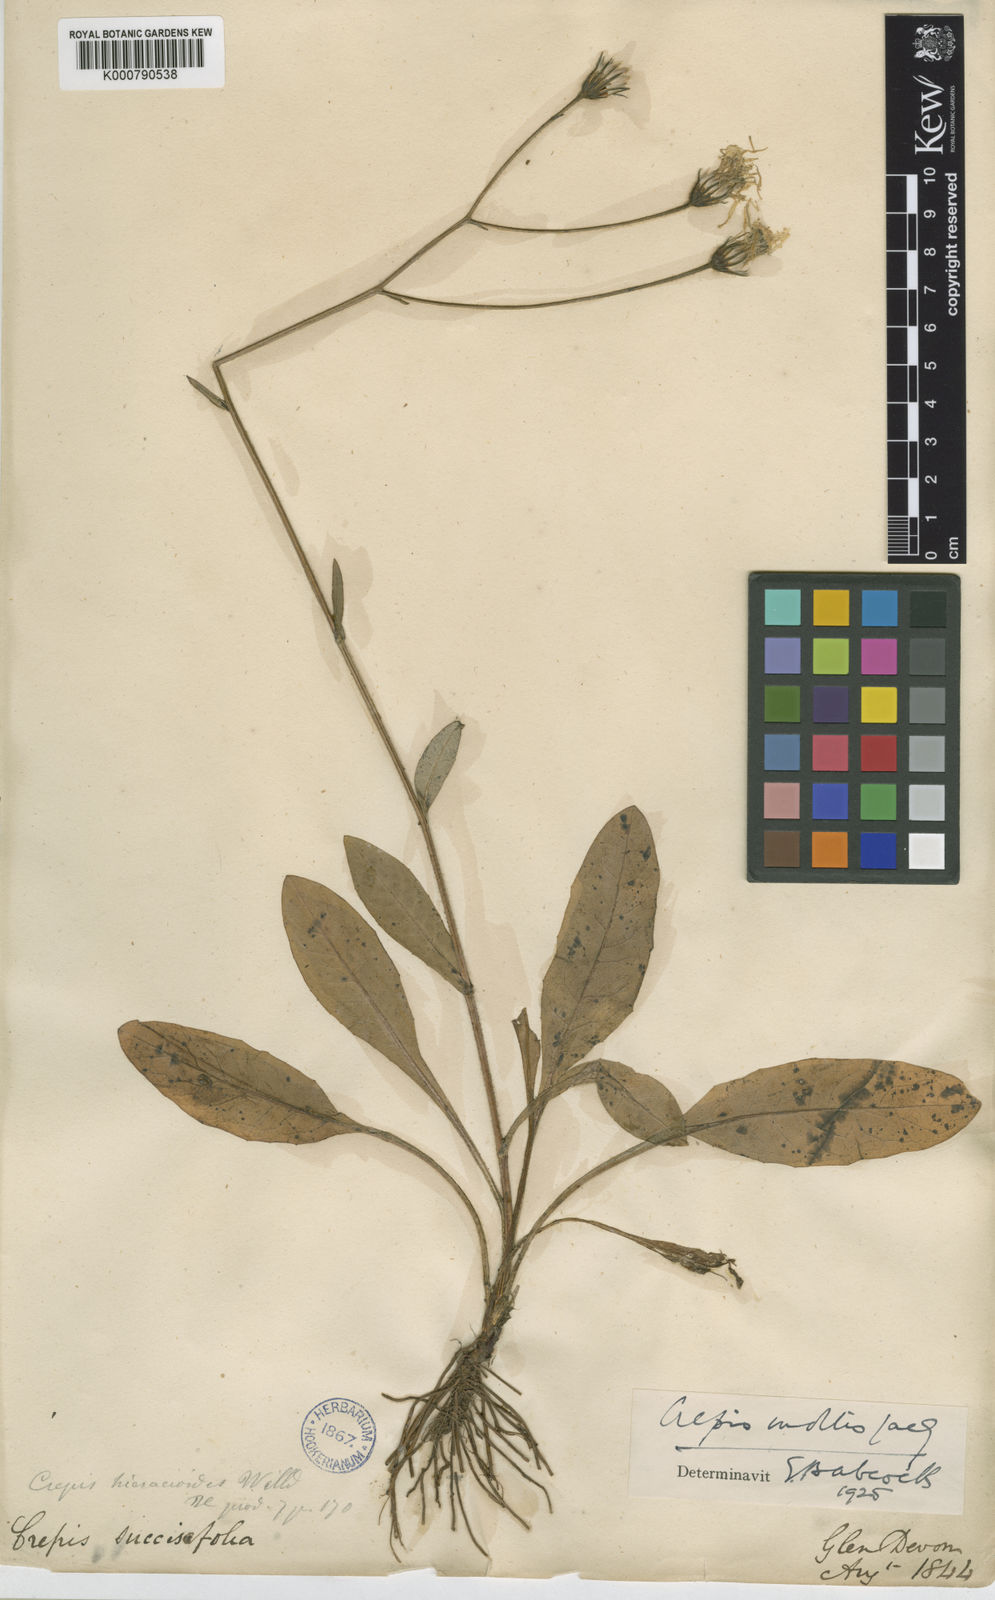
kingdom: Plantae
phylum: Tracheophyta
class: Magnoliopsida
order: Asterales
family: Asteraceae
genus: Crepis
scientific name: Crepis mollis
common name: Northern hawk's-beard
